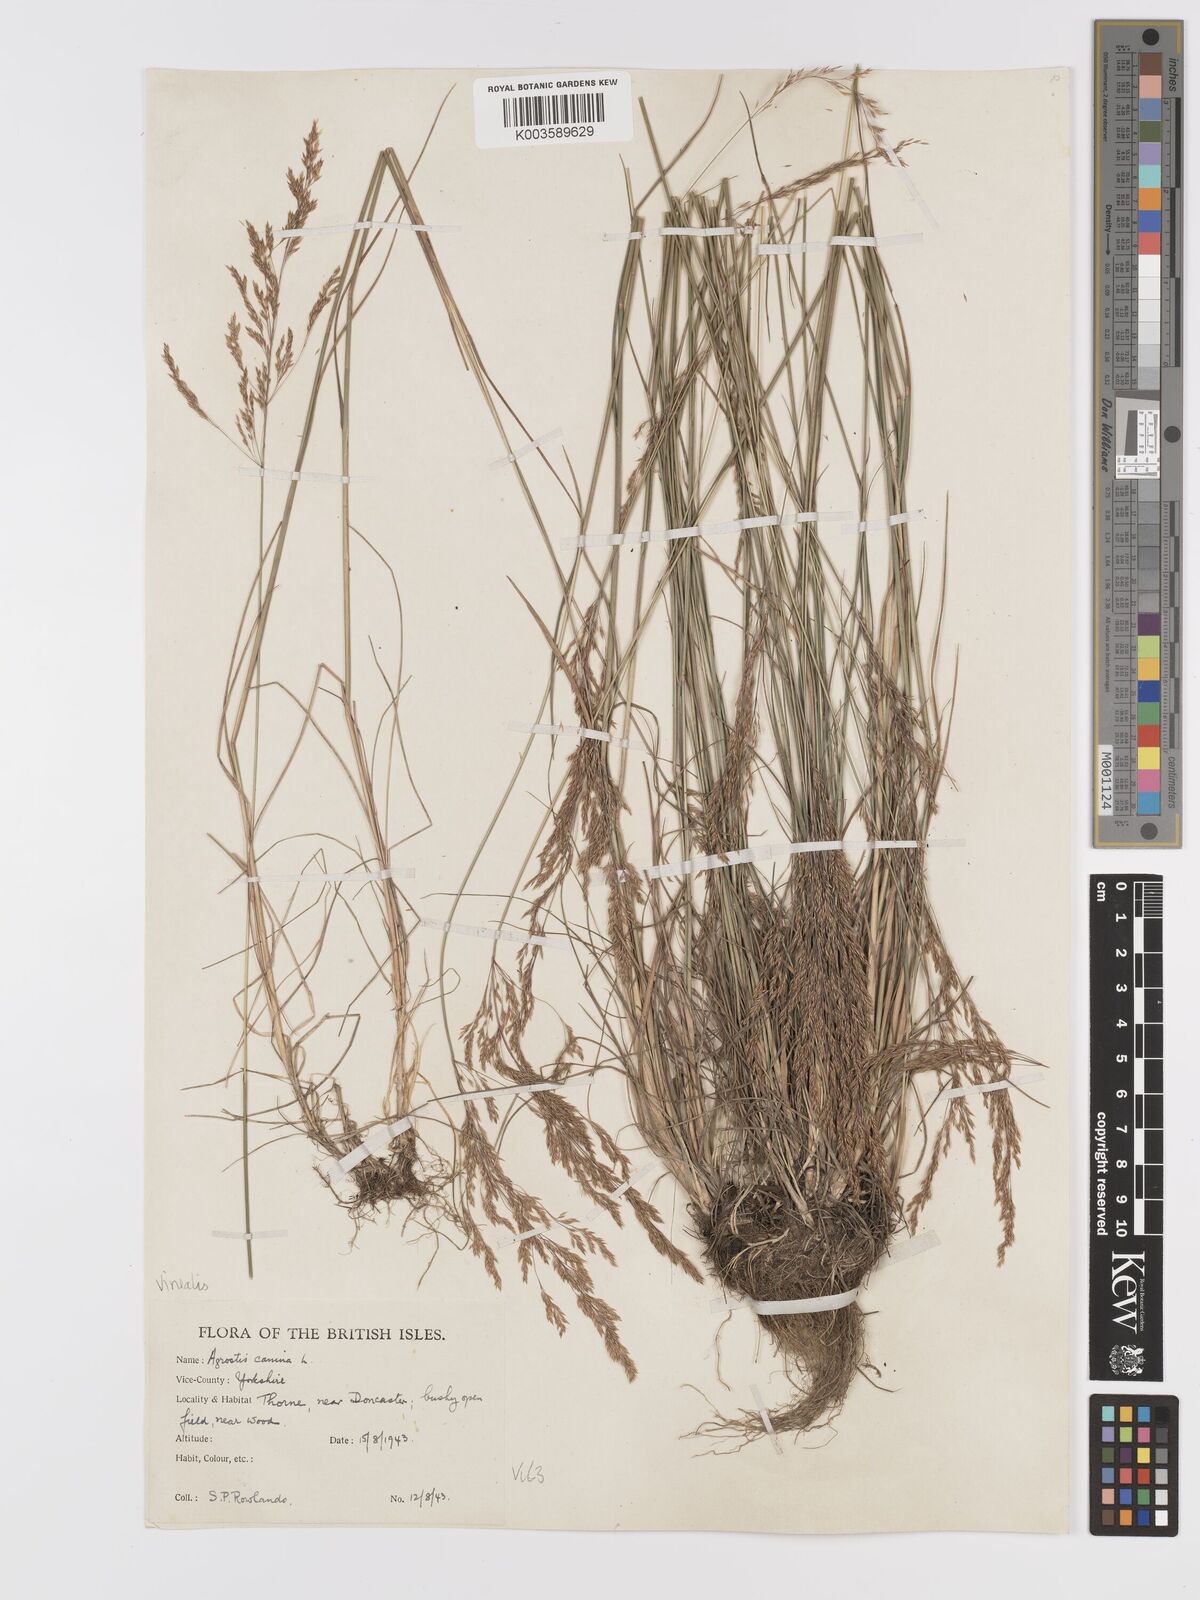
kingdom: Plantae
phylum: Tracheophyta
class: Liliopsida
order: Poales
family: Poaceae
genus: Agrostis
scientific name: Agrostis
